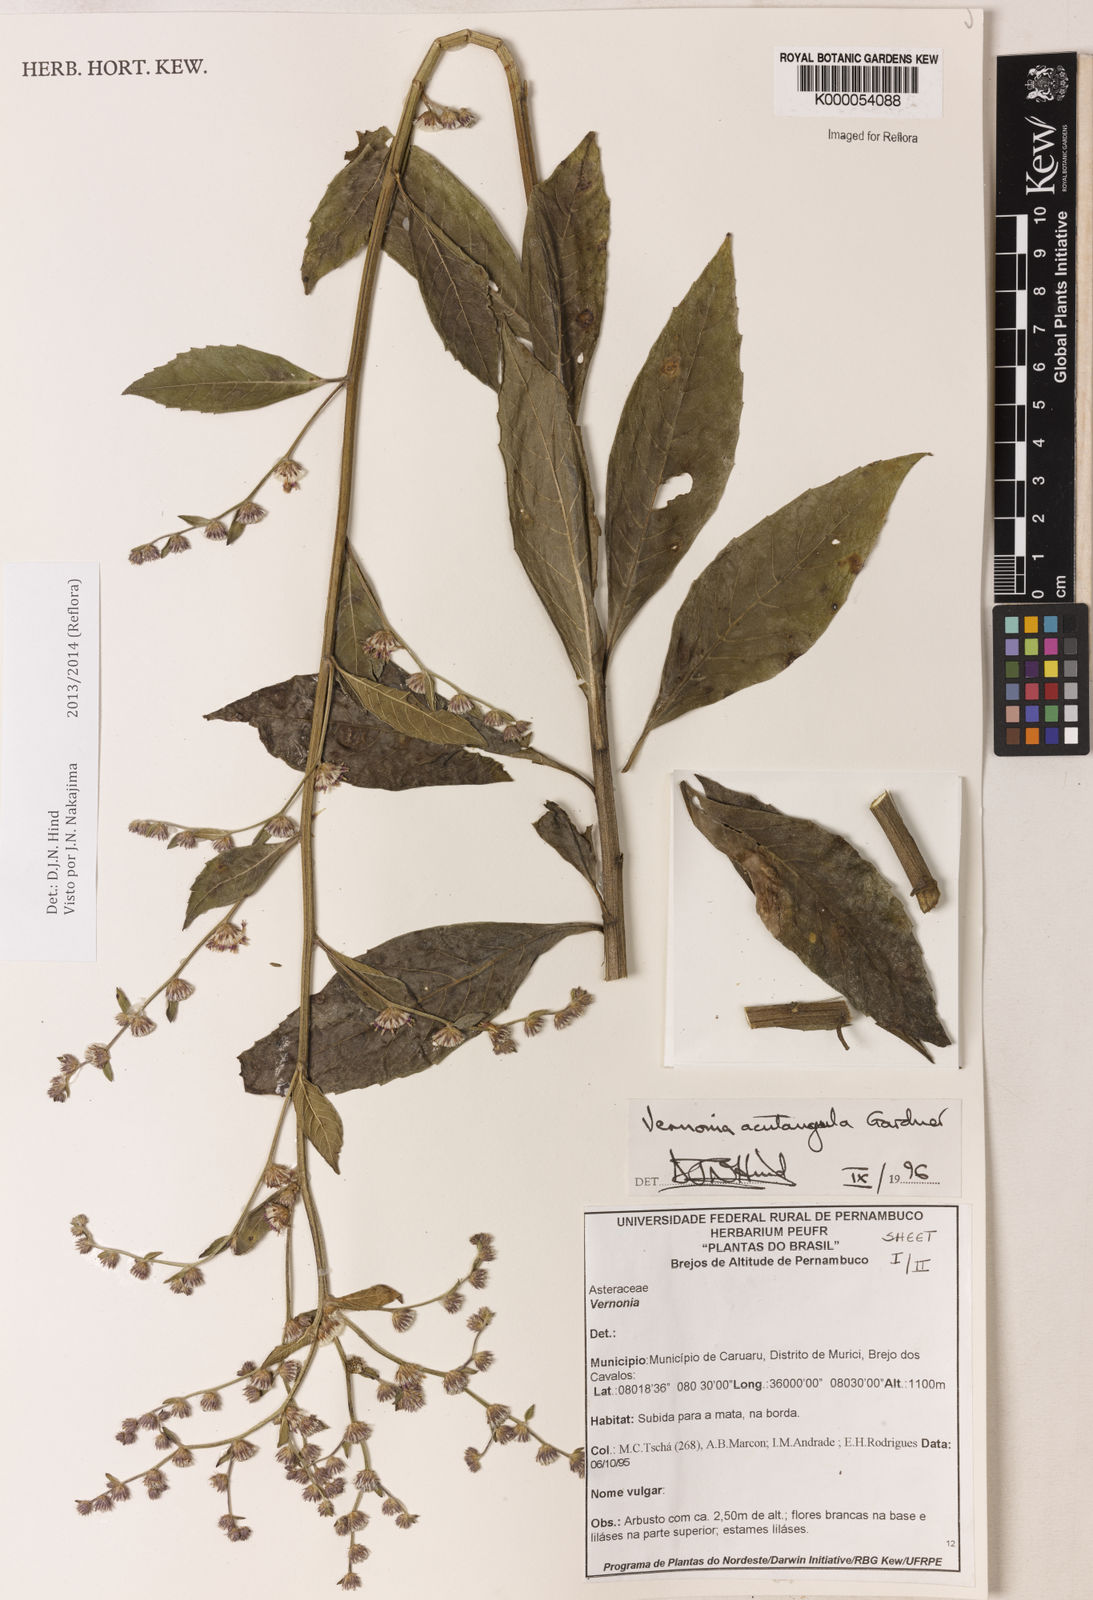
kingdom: Plantae
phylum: Tracheophyta
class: Magnoliopsida
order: Asterales
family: Asteraceae
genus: Lepidaploa
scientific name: Lepidaploa acutangula
